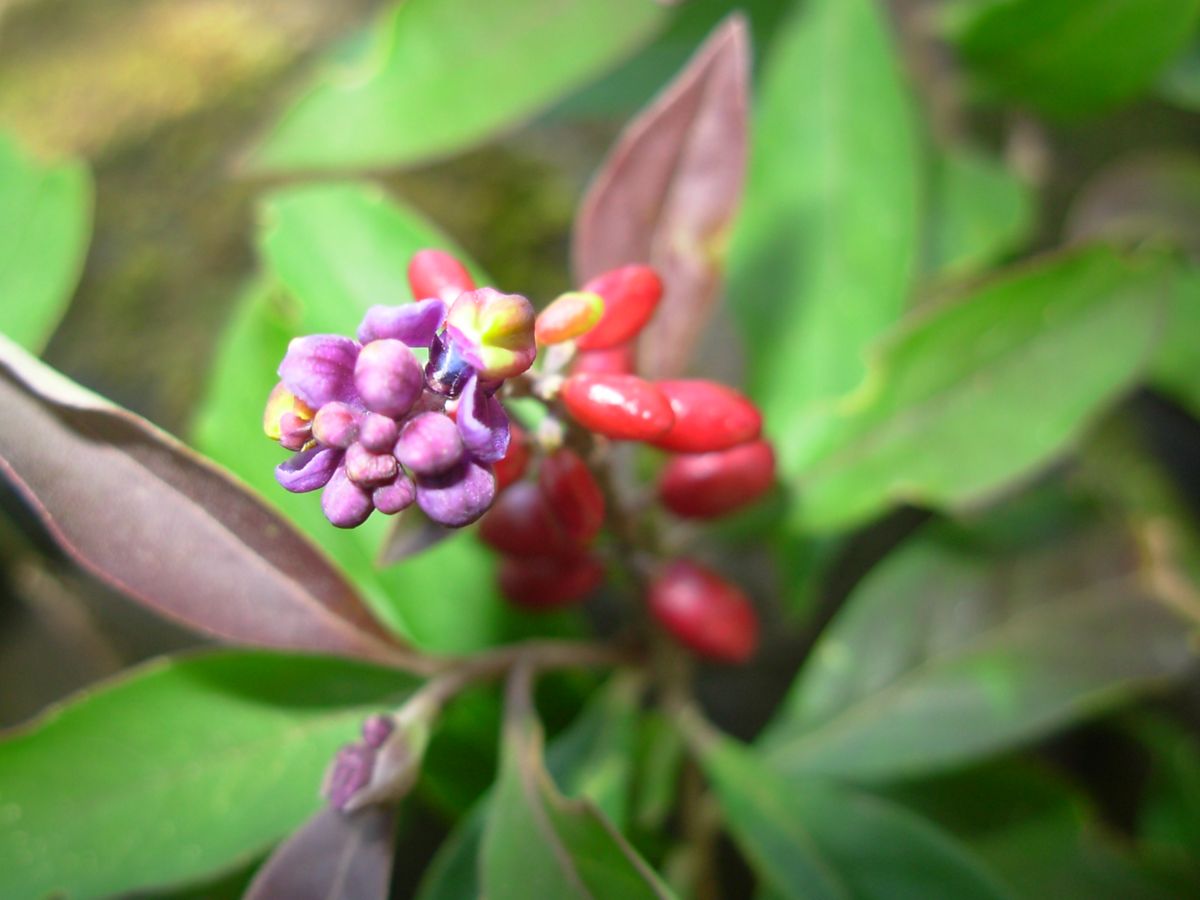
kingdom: Plantae
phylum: Tracheophyta
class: Magnoliopsida
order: Fabales
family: Polygalaceae
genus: Monnina
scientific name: Monnina xalapensis
